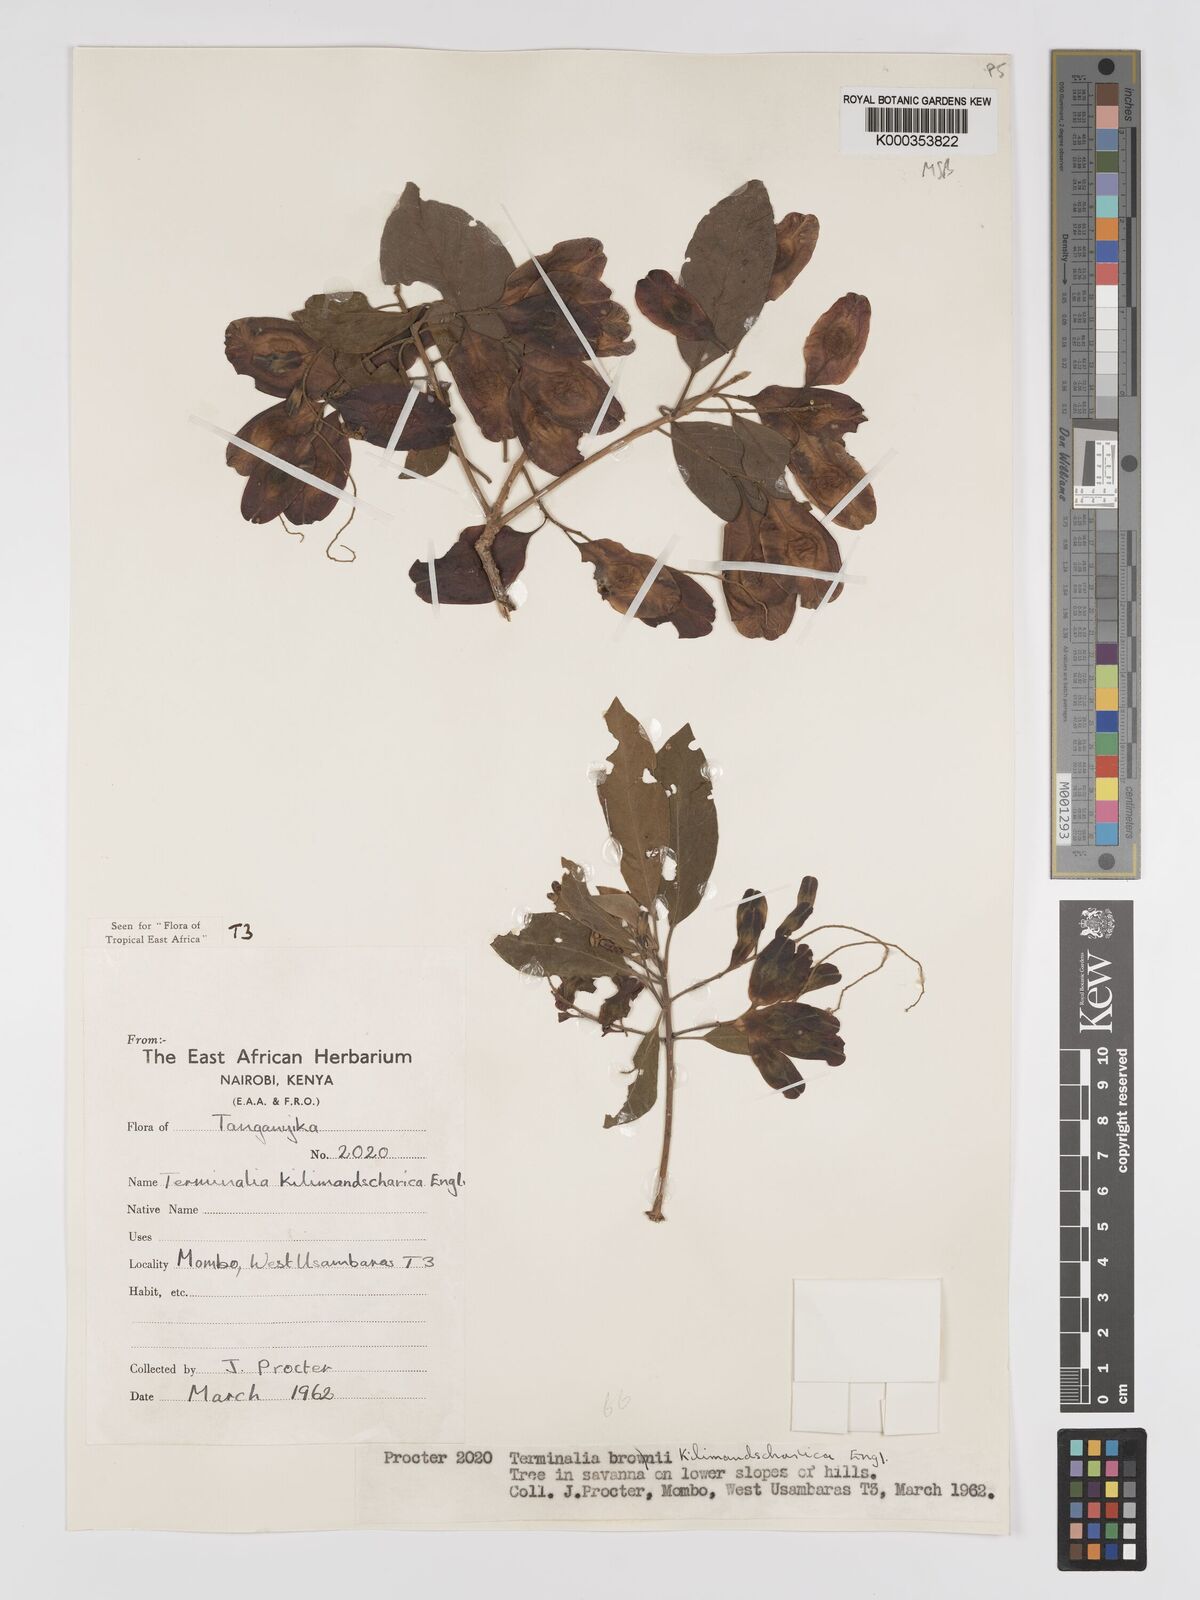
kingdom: Plantae
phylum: Tracheophyta
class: Magnoliopsida
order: Myrtales
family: Combretaceae
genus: Terminalia
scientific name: Terminalia kilimandscharica
